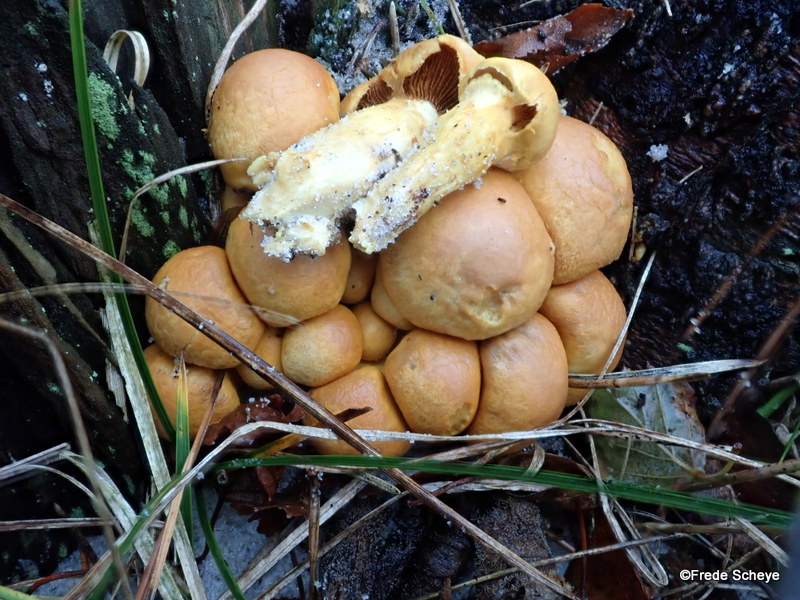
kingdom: Fungi
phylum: Basidiomycota
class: Agaricomycetes
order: Agaricales
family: Hymenogastraceae
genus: Gymnopilus
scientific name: Gymnopilus spectabilis
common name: fibret flammehat
